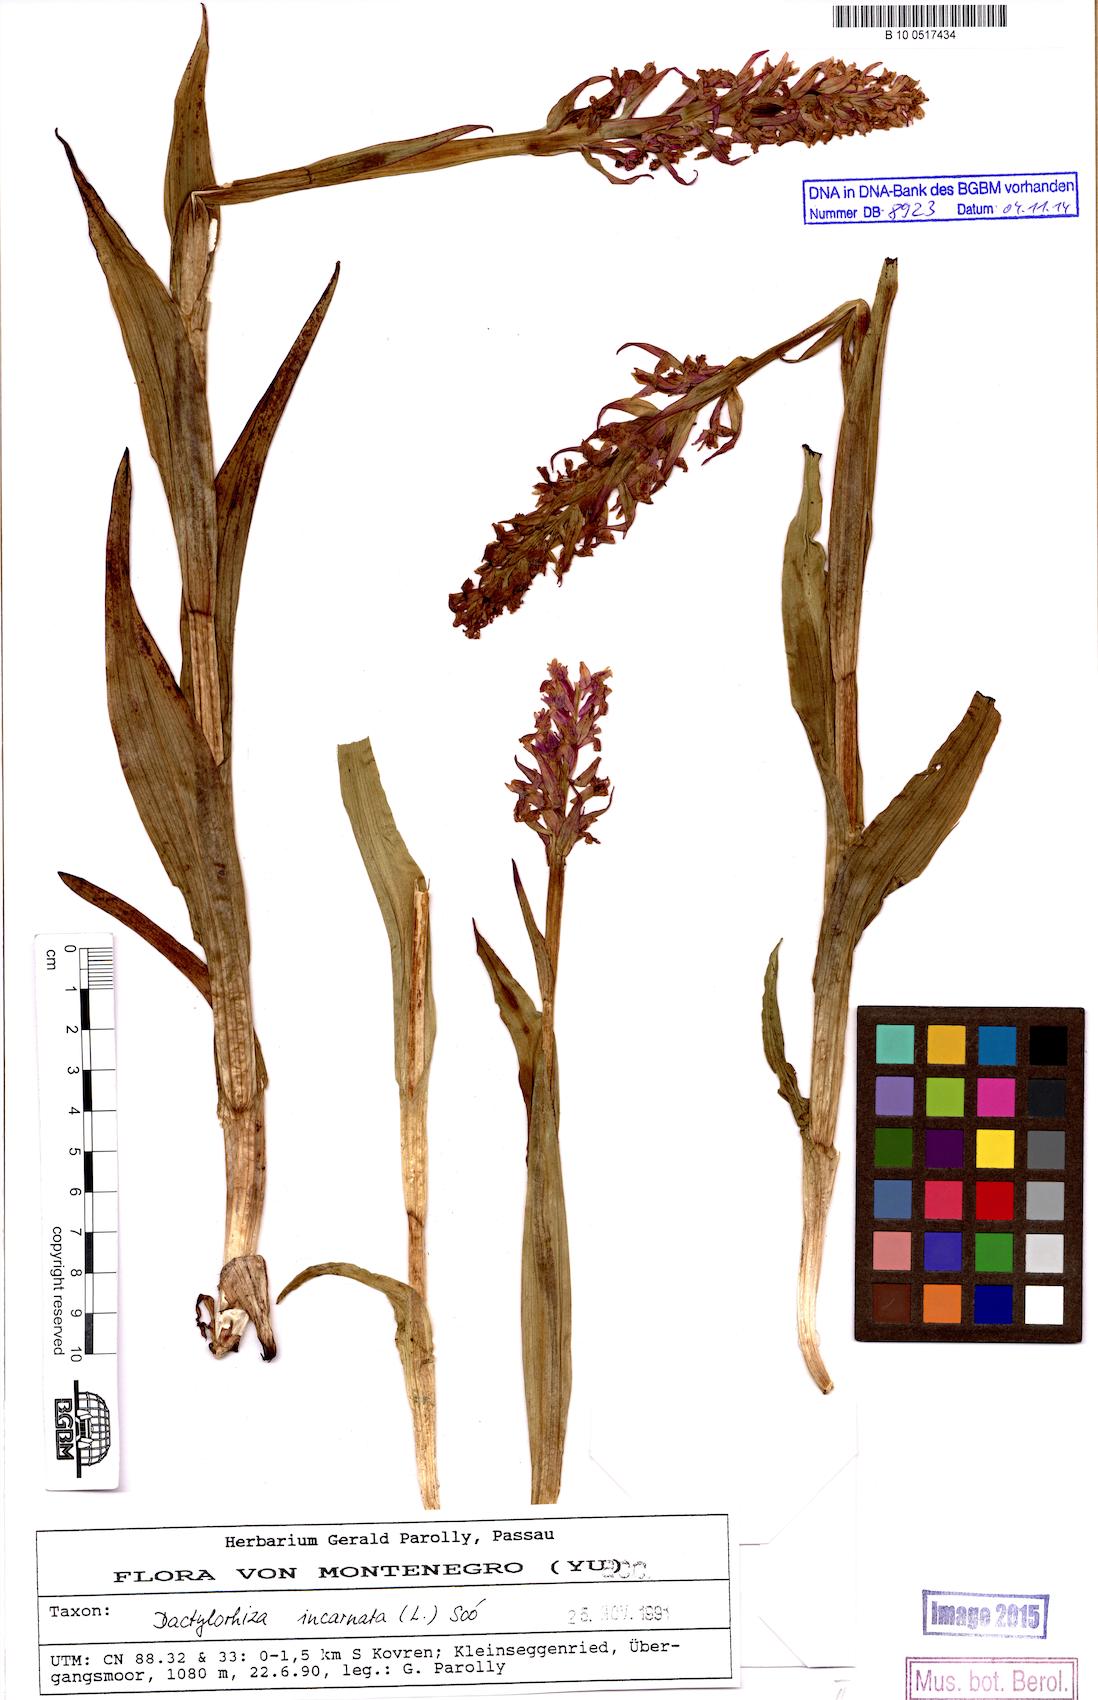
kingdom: Plantae
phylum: Tracheophyta
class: Liliopsida
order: Asparagales
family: Orchidaceae
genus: Dactylorhiza
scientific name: Dactylorhiza incarnata
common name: Early marsh-orchid
